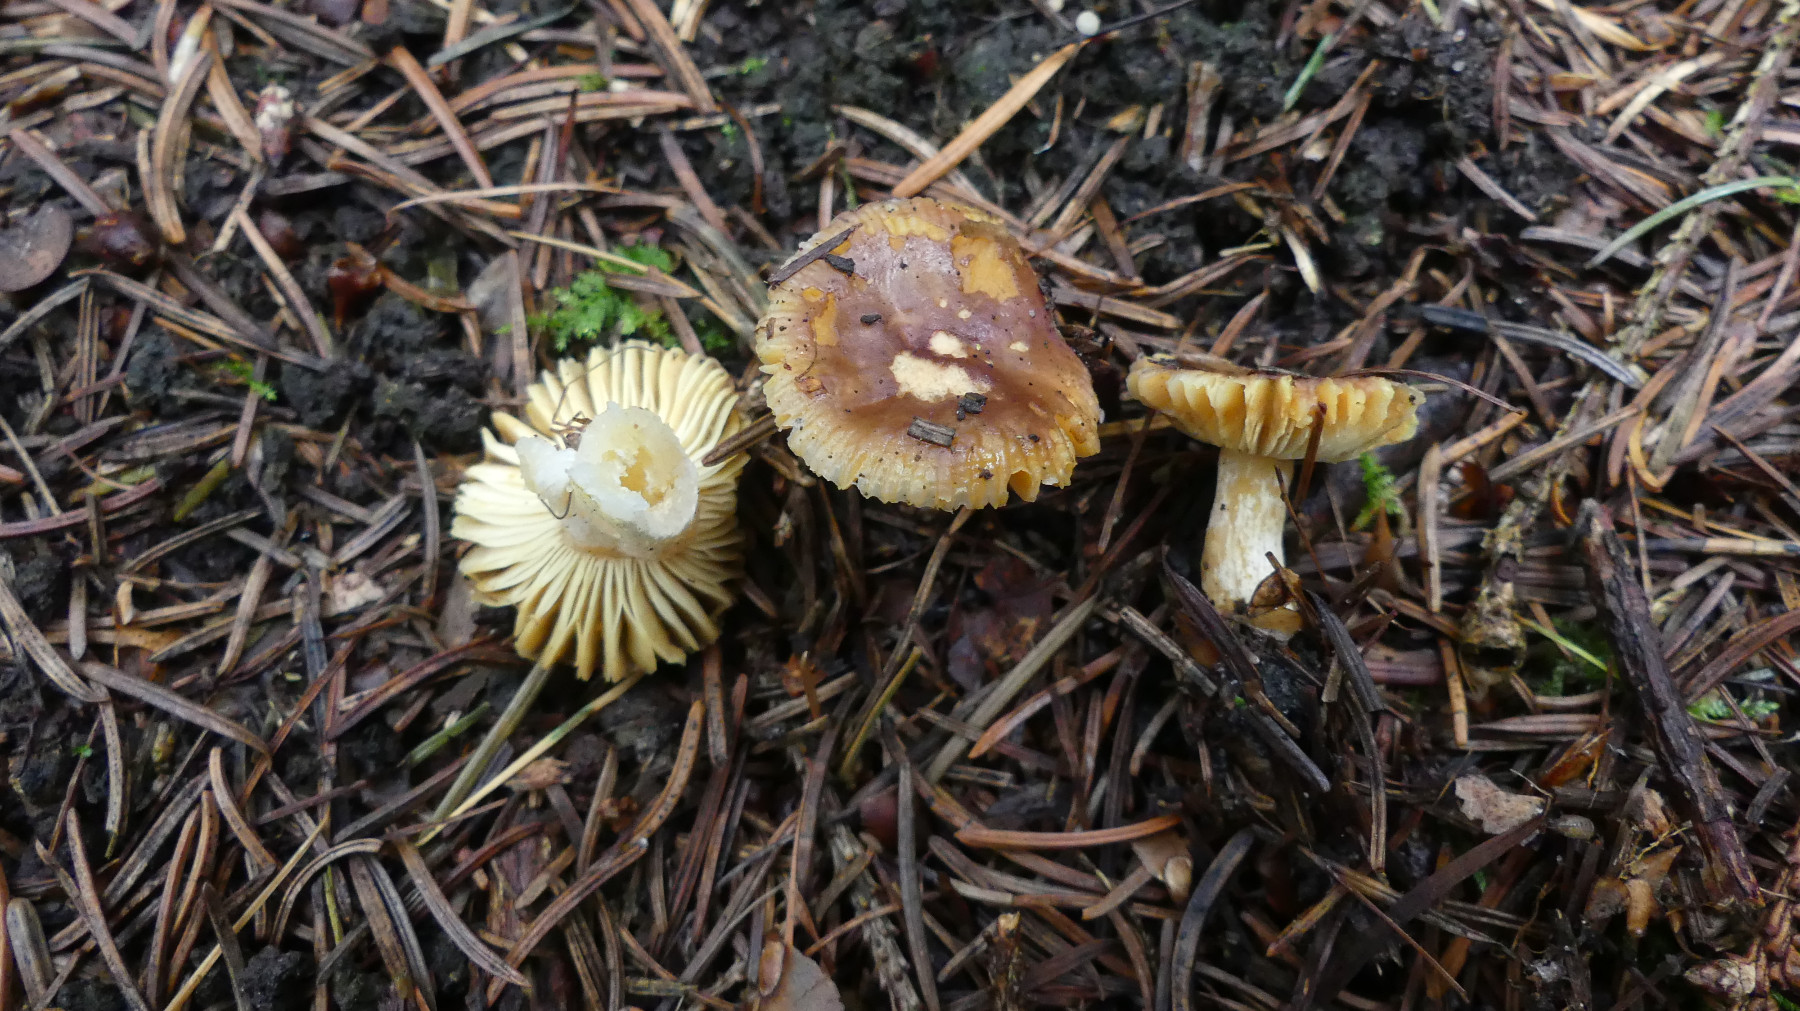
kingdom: Fungi
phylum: Basidiomycota
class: Agaricomycetes
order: Russulales
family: Russulaceae
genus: Russula
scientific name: Russula puellaris
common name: gulstokket skørhat
